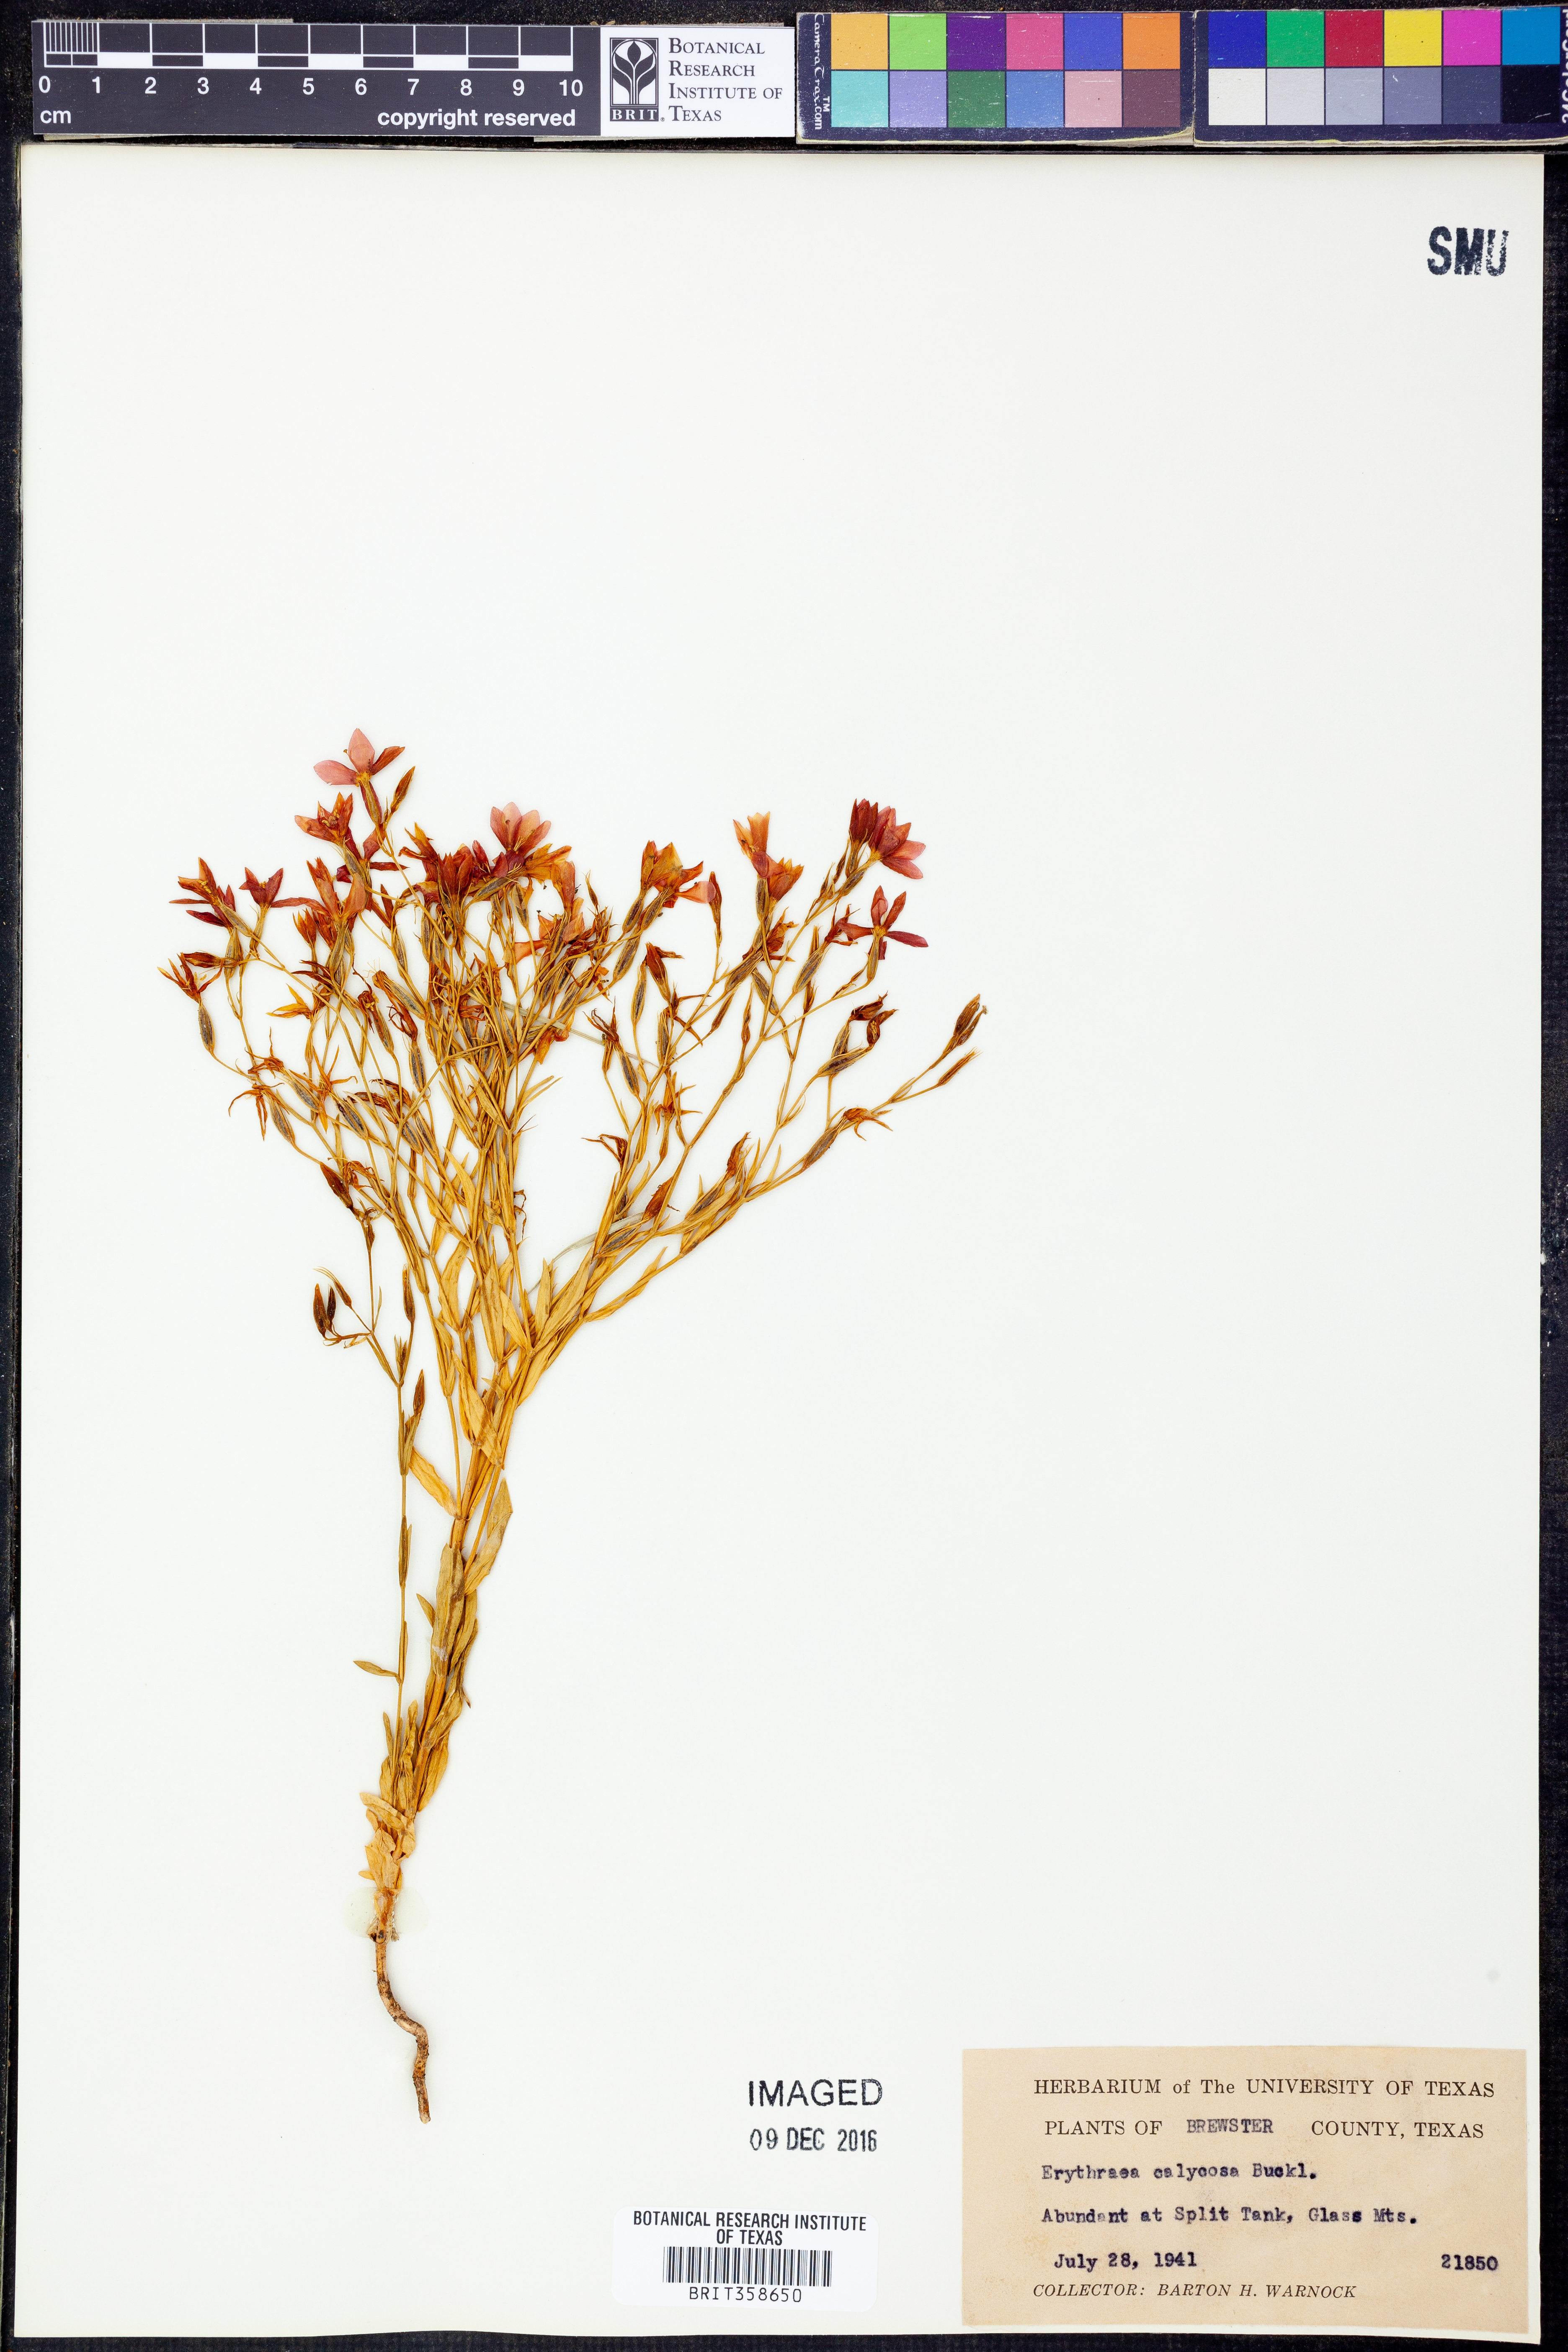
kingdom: Plantae
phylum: Tracheophyta
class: Magnoliopsida
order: Gentianales
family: Gentianaceae
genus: Zeltnera
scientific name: Zeltnera calycosa
